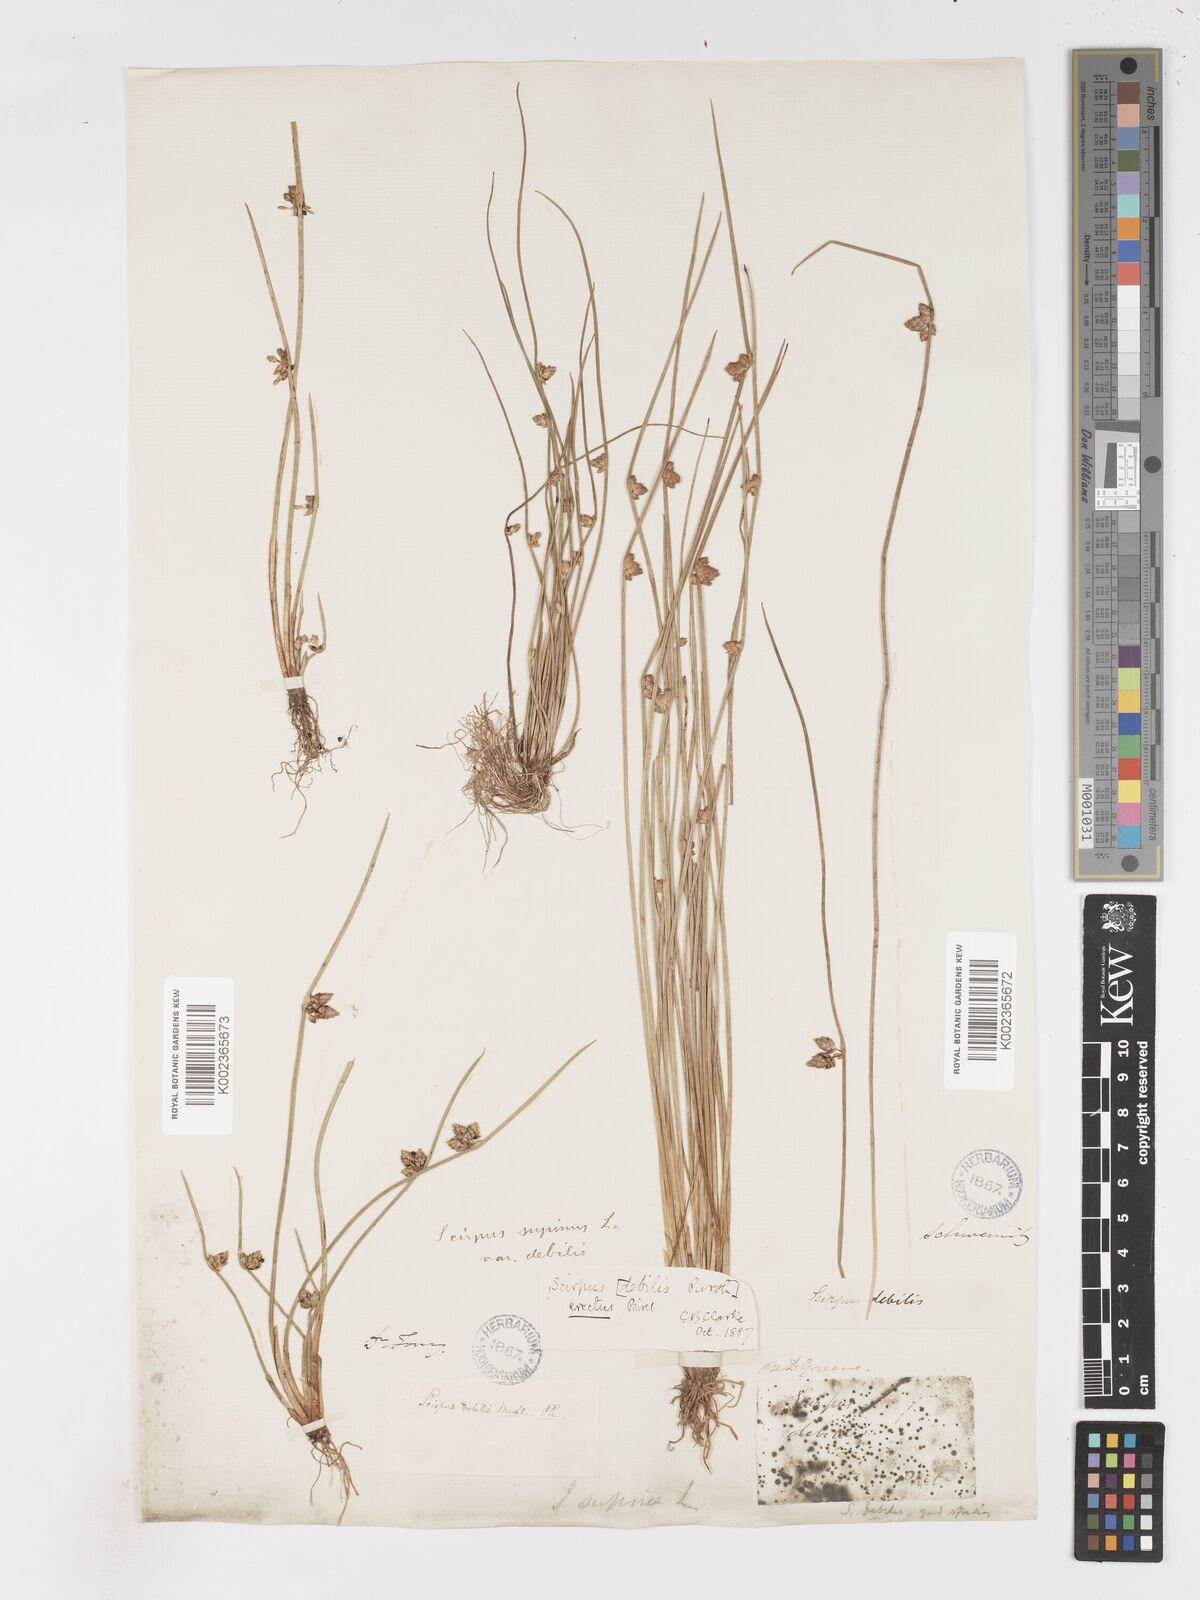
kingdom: Plantae
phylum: Tracheophyta
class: Liliopsida
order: Poales
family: Cyperaceae
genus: Schoenoplectiella
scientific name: Schoenoplectiella purshiana
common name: Weak-stalked bulrush
